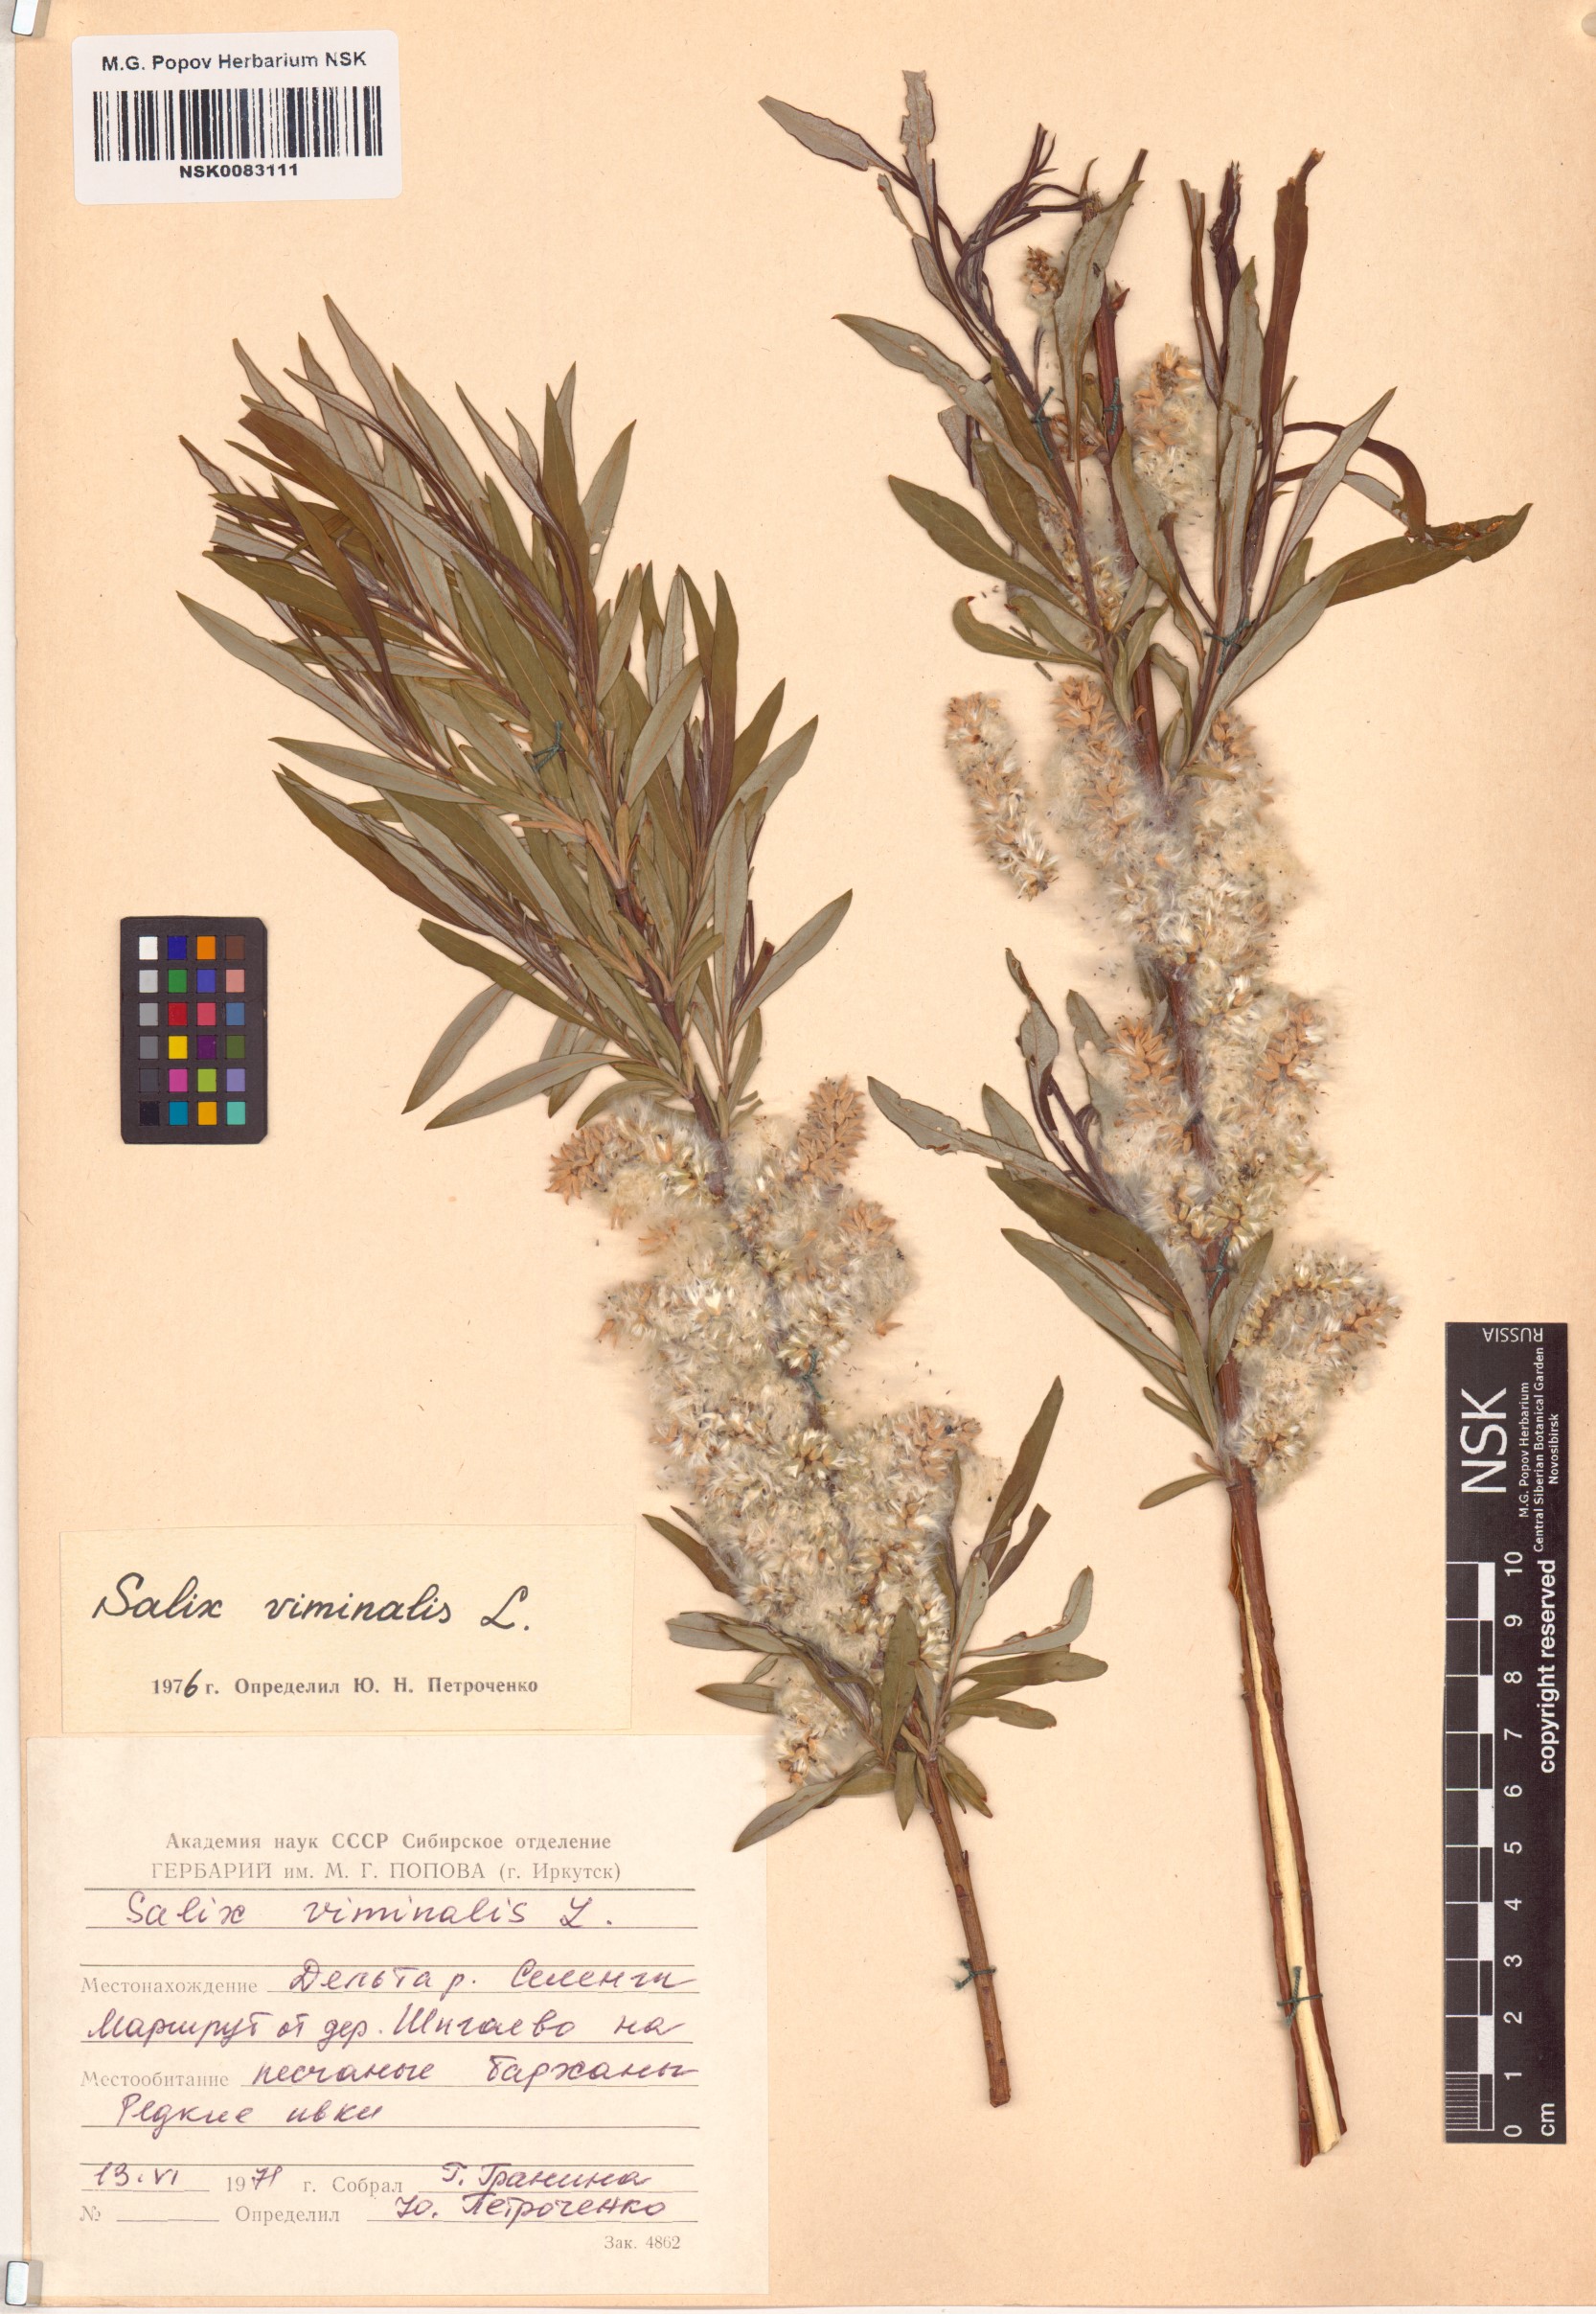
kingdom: Plantae
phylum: Tracheophyta
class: Magnoliopsida
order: Malpighiales
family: Salicaceae
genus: Salix
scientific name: Salix viminalis
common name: Osier
